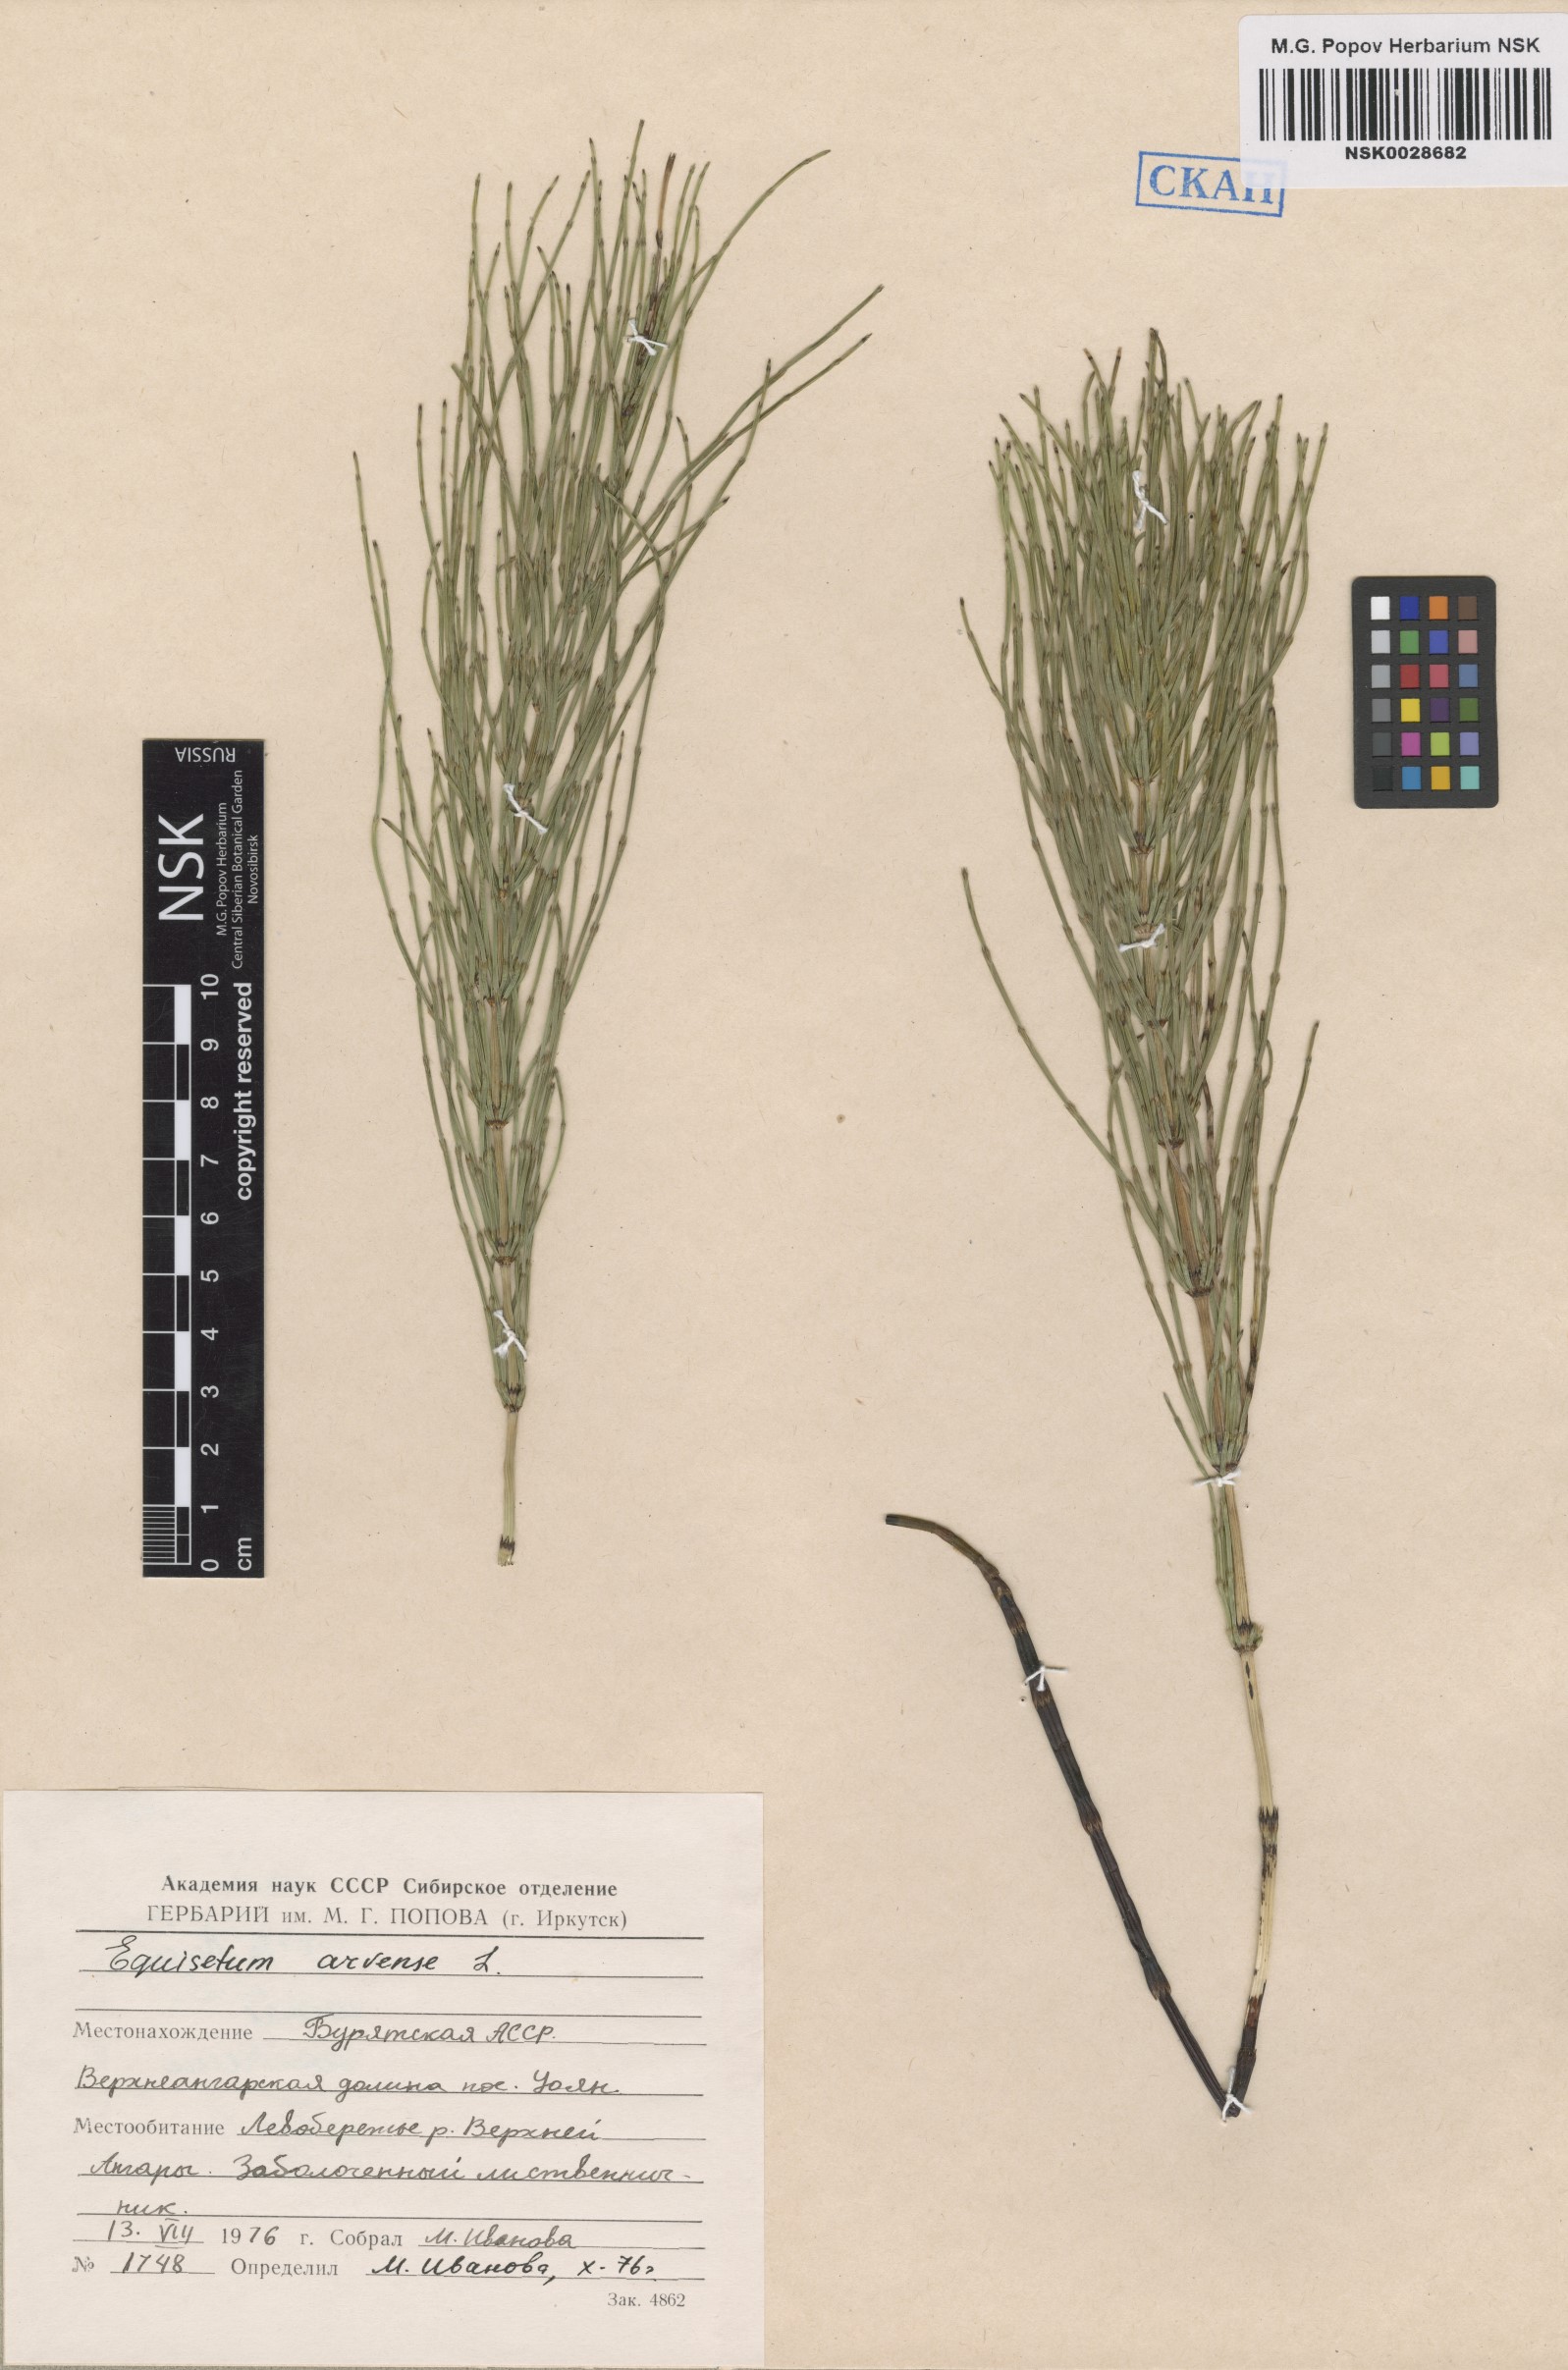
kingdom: Plantae
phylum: Tracheophyta
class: Polypodiopsida
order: Equisetales
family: Equisetaceae
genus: Equisetum
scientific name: Equisetum arvense
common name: Field horsetail
